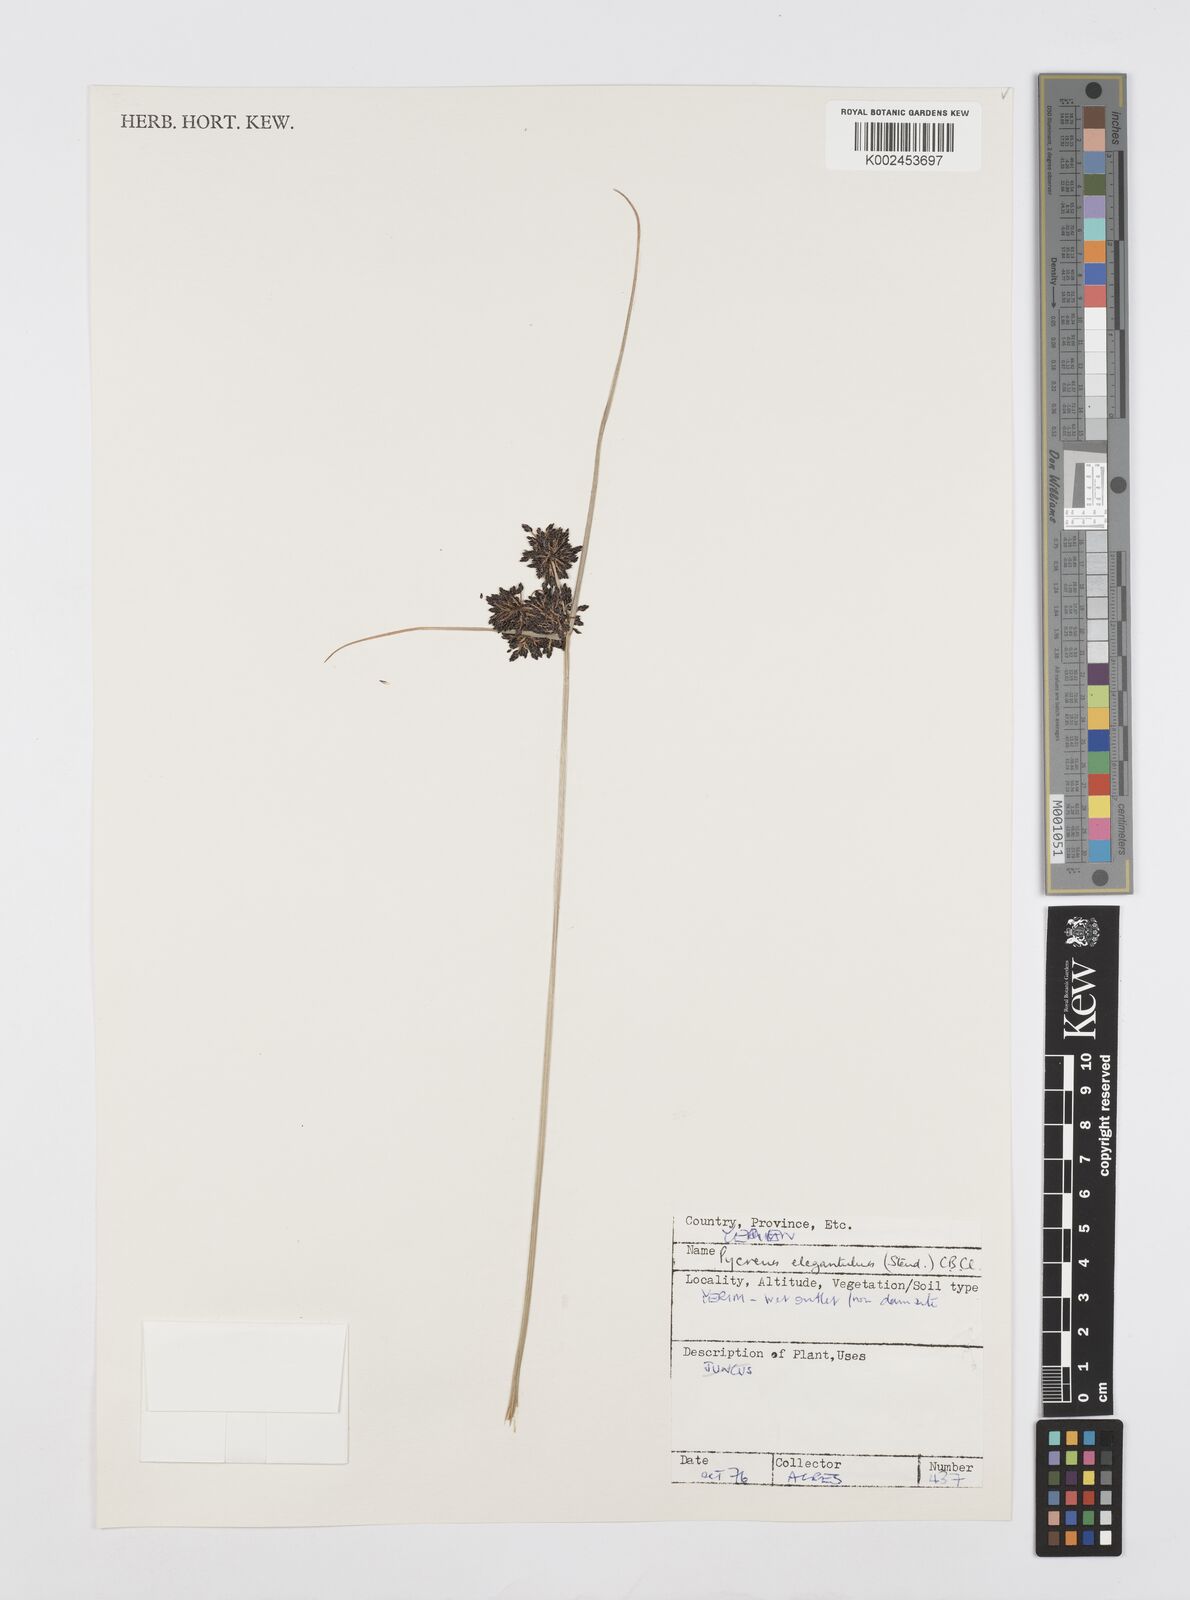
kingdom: Plantae
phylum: Tracheophyta
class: Liliopsida
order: Poales
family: Cyperaceae
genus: Cyperus
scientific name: Cyperus elegantulus
